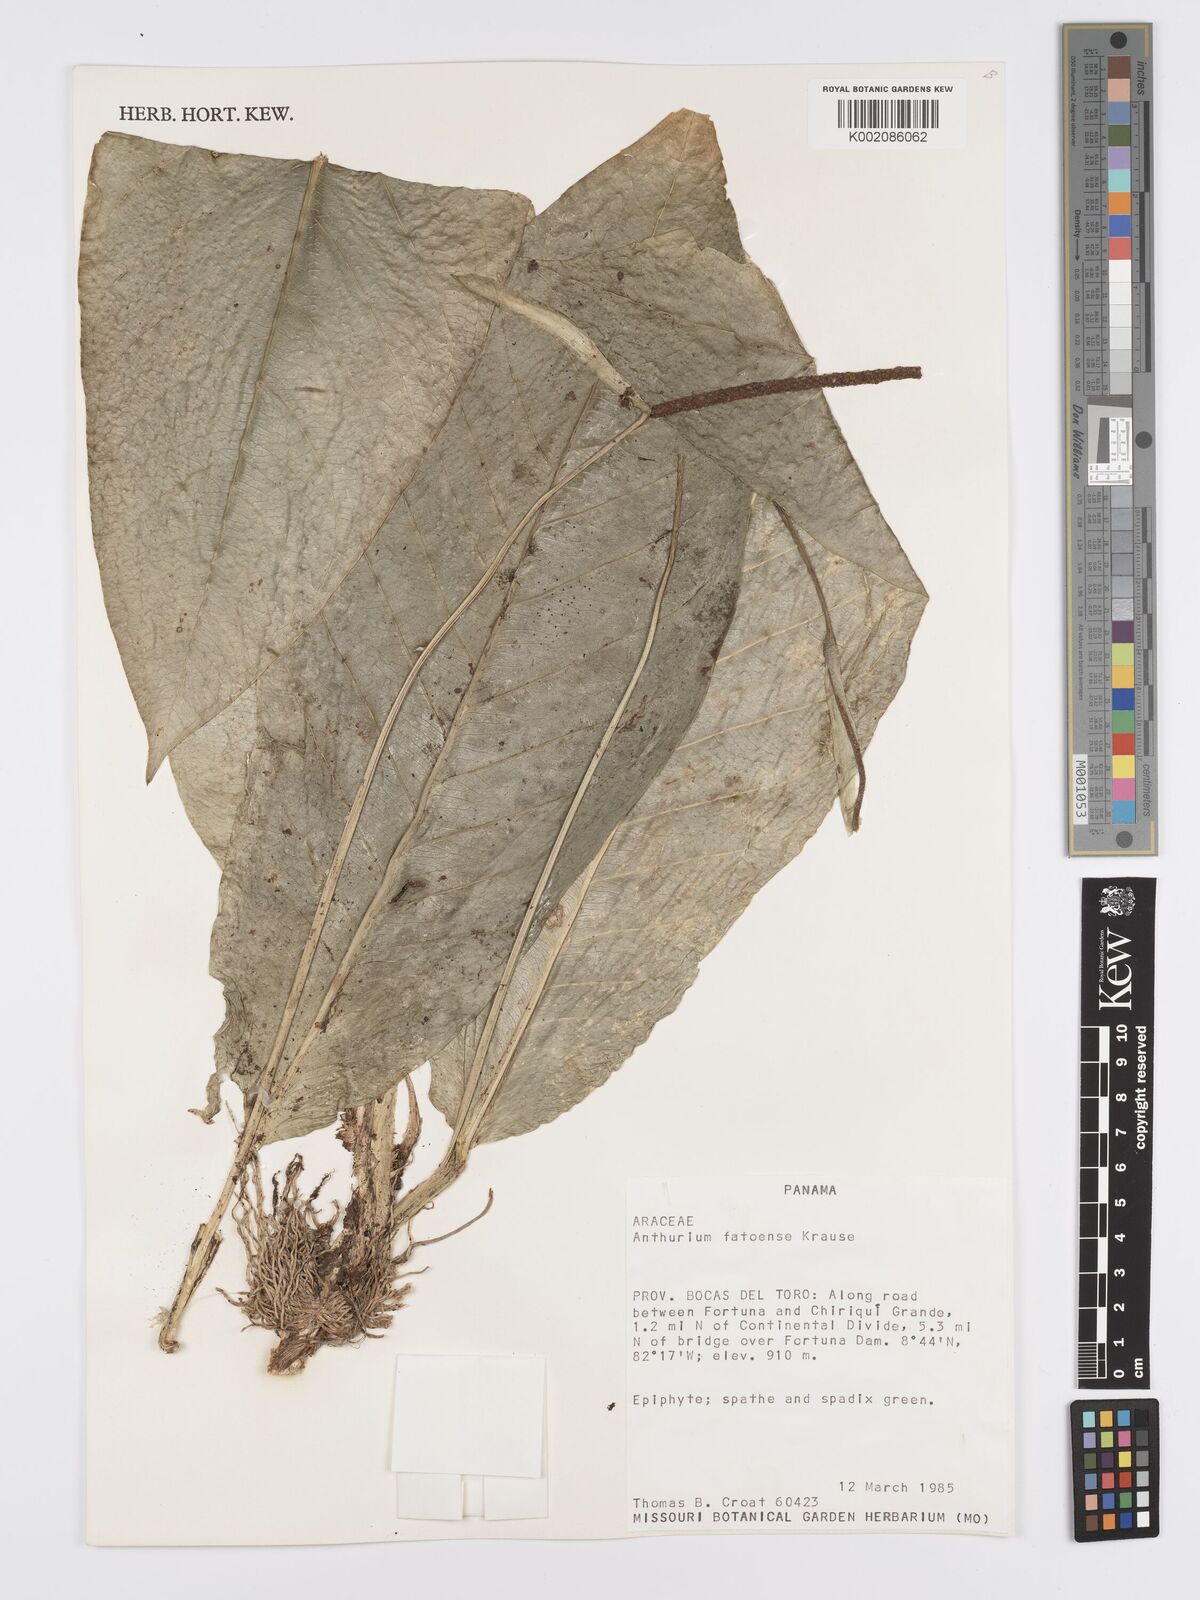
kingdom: Plantae
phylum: Tracheophyta
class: Liliopsida
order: Alismatales
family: Araceae
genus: Anthurium
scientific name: Anthurium fatoense
